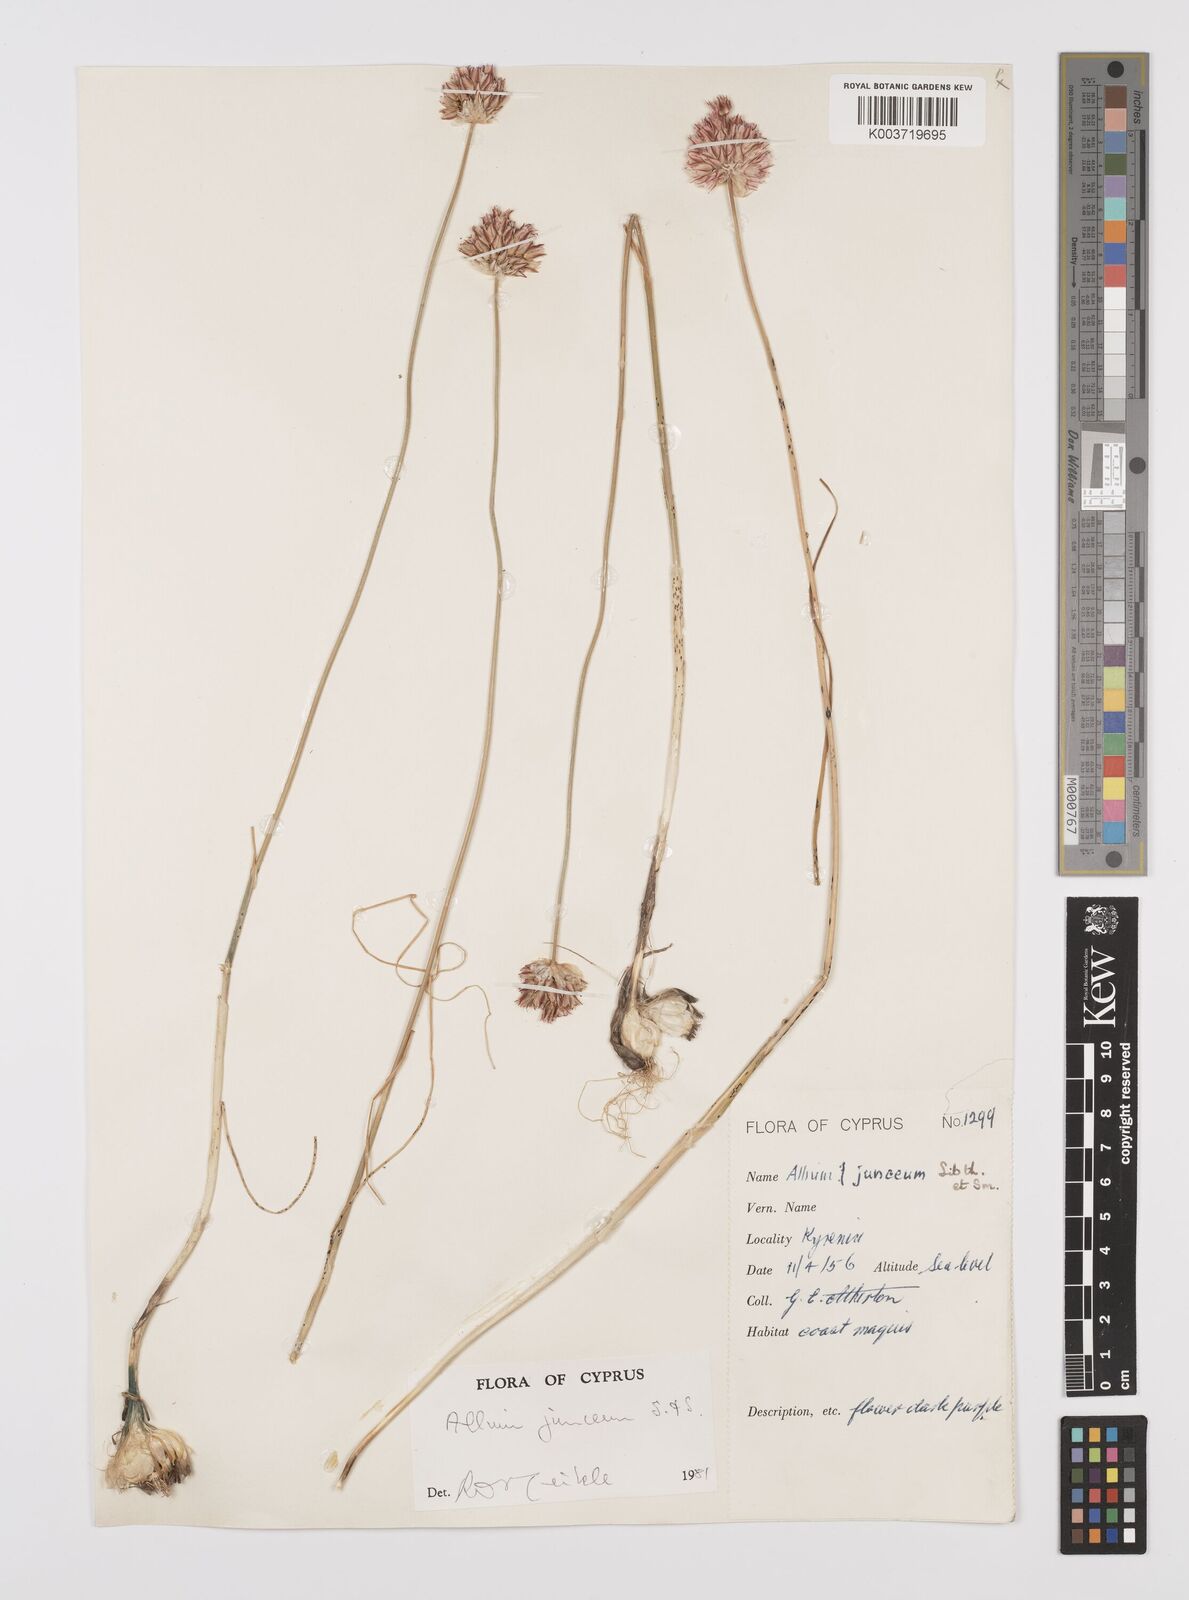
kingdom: Plantae
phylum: Tracheophyta
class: Liliopsida
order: Asparagales
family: Amaryllidaceae
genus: Allium
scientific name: Allium junceum
